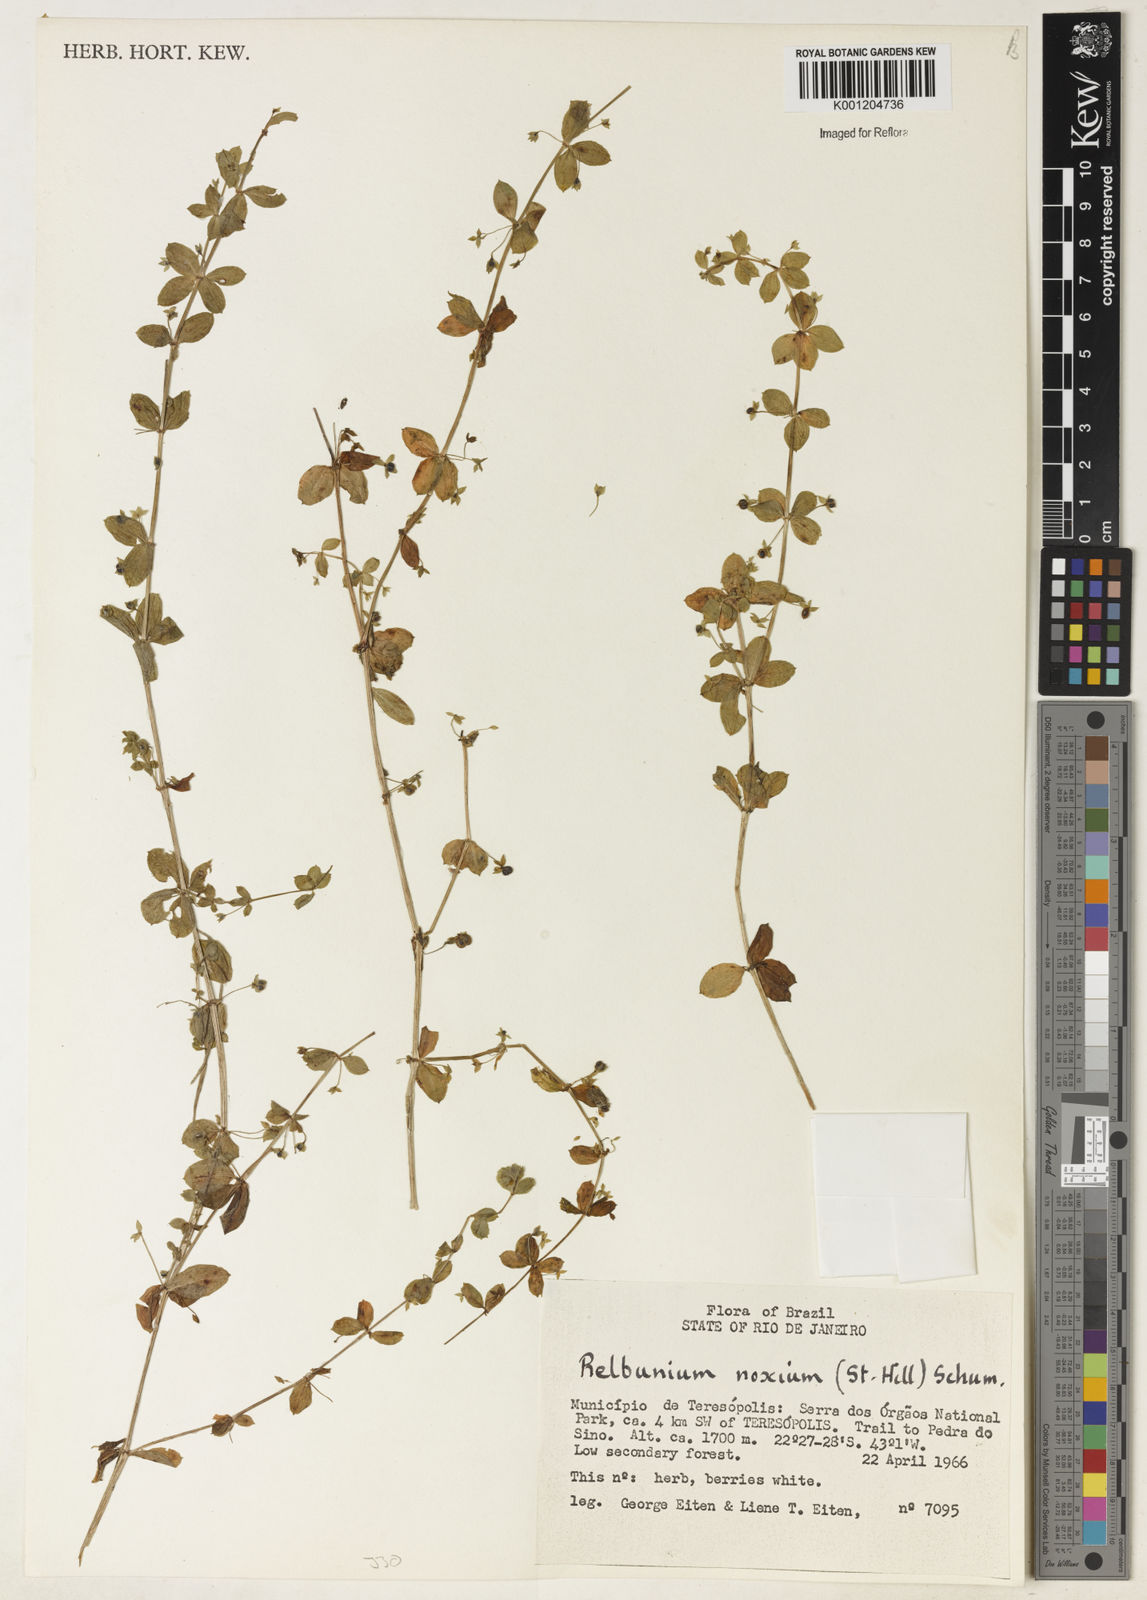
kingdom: Plantae
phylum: Tracheophyta
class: Magnoliopsida
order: Gentianales
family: Rubiaceae
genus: Galium
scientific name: Galium noxium
